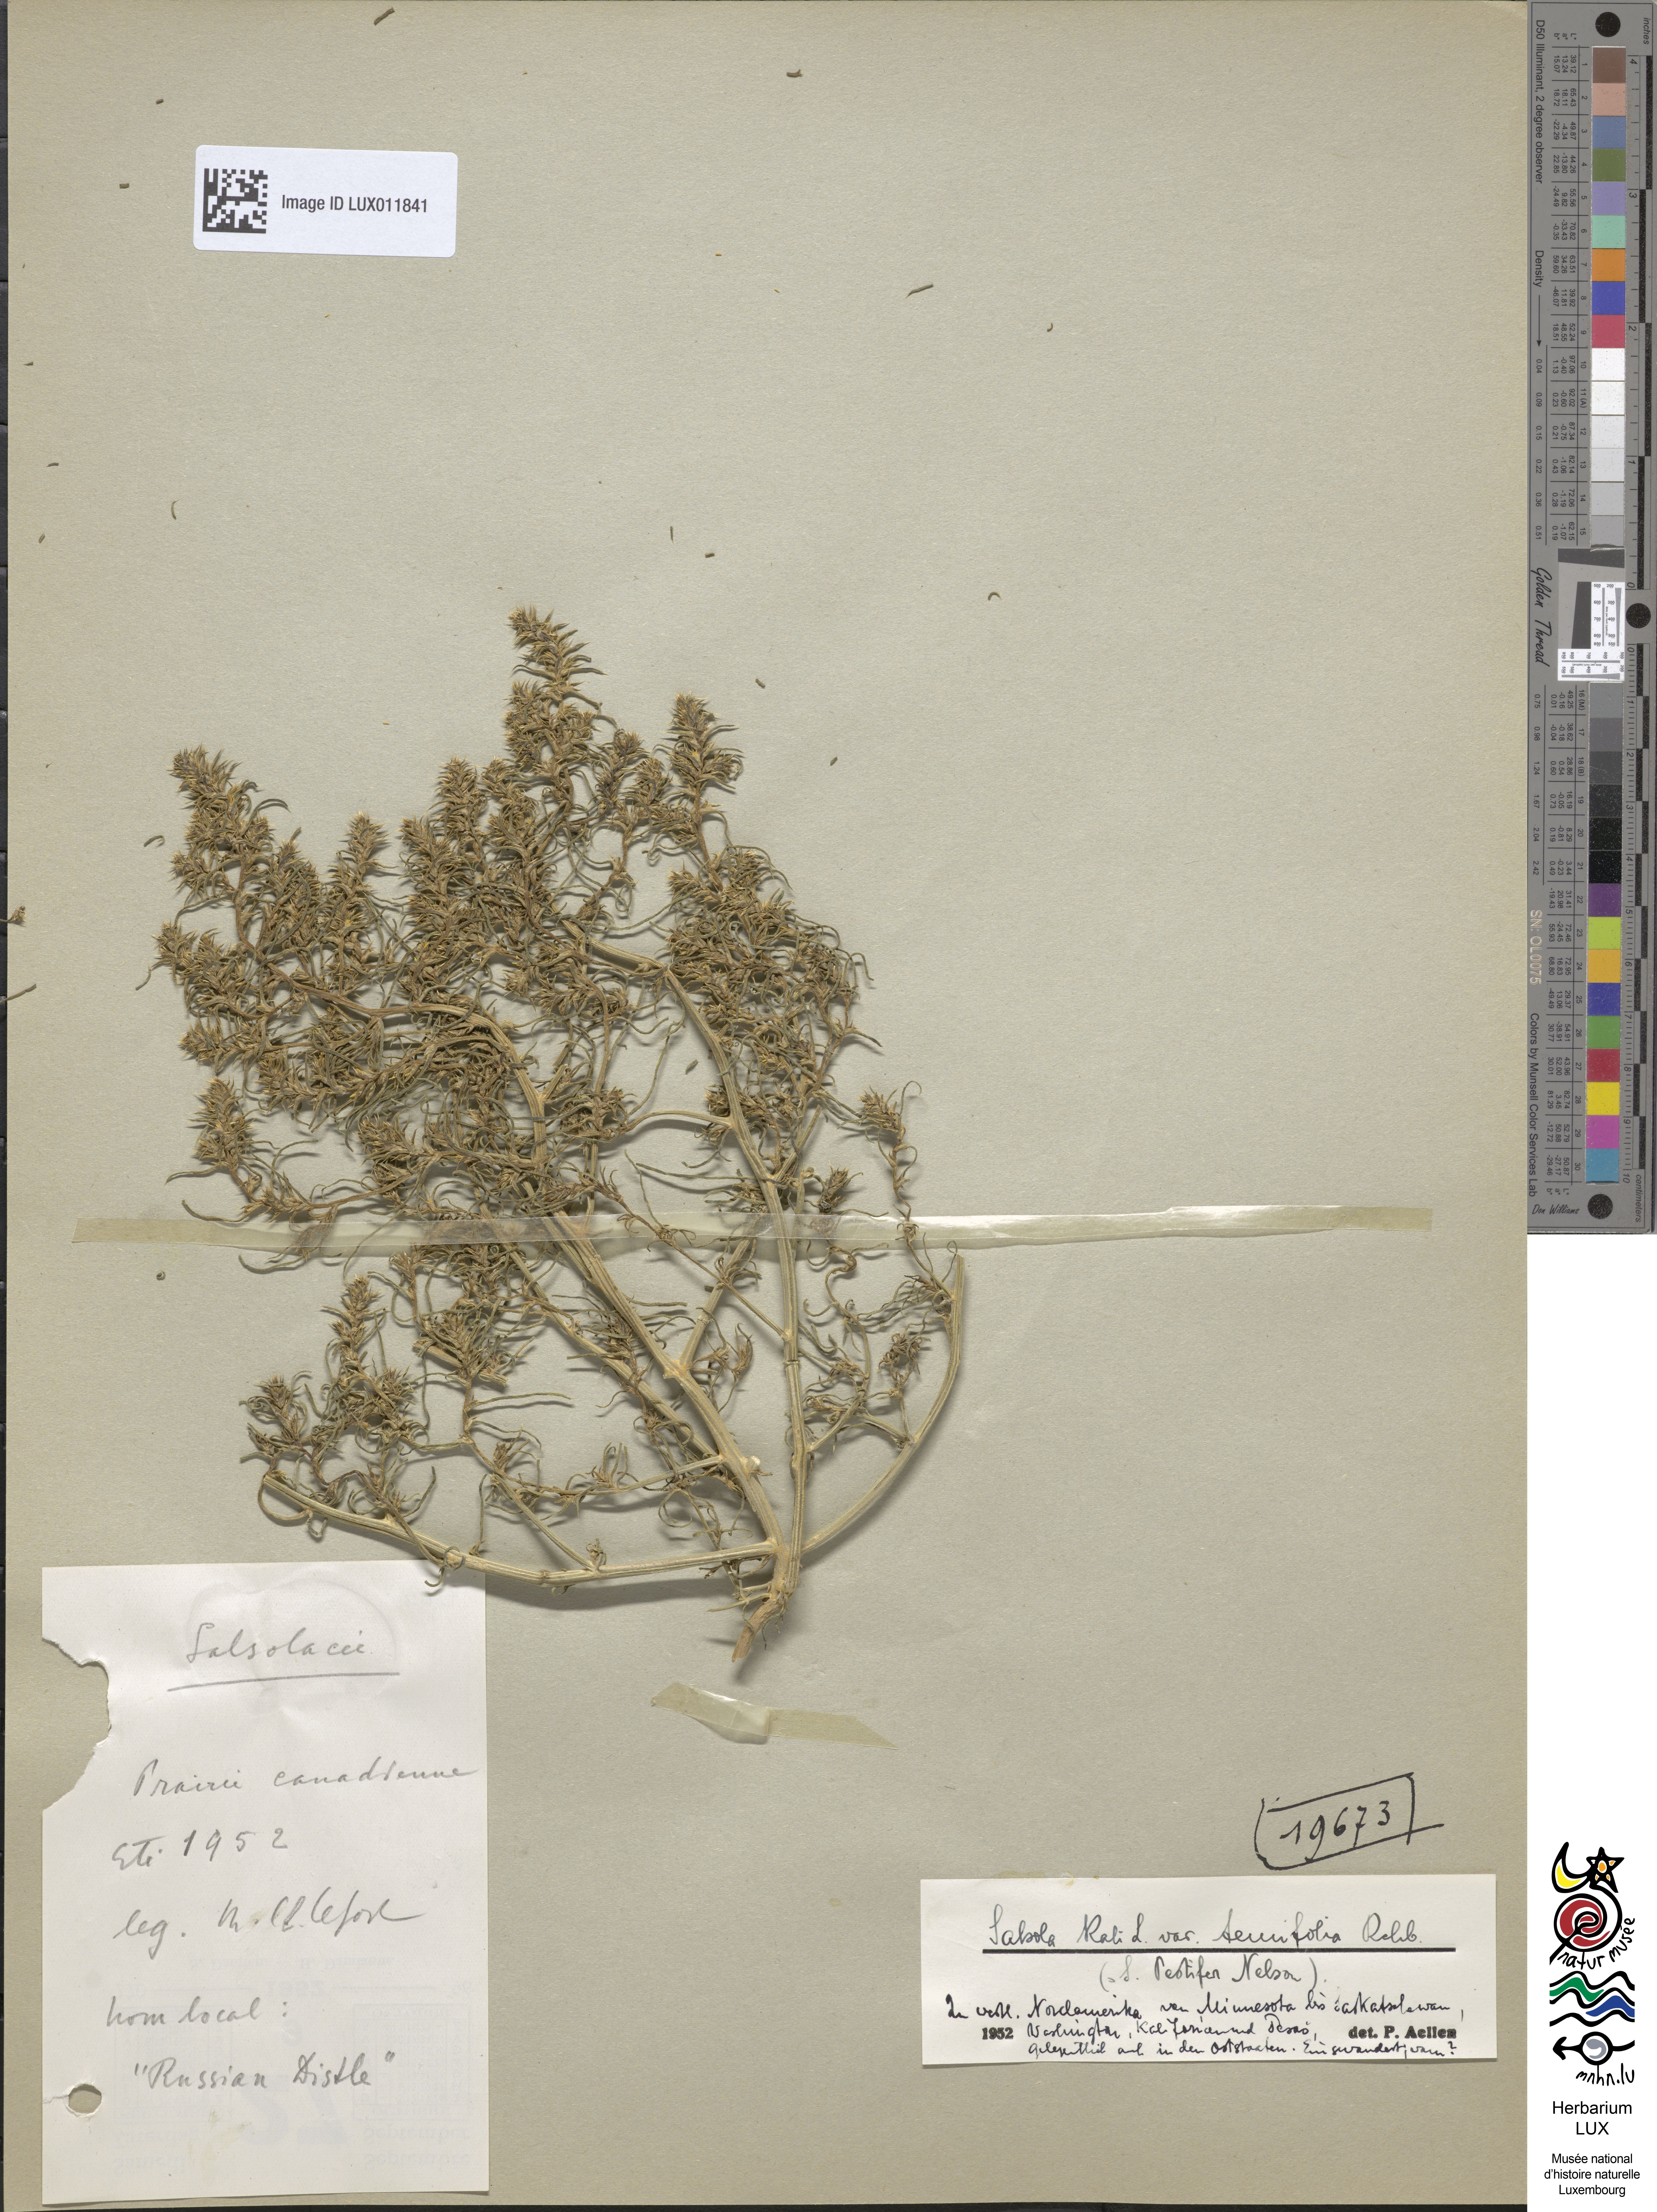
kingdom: Plantae
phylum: Tracheophyta
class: Magnoliopsida
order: Caryophyllales
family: Amaranthaceae
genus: Salsola
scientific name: Salsola tragus
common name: Prickly russian thistle
